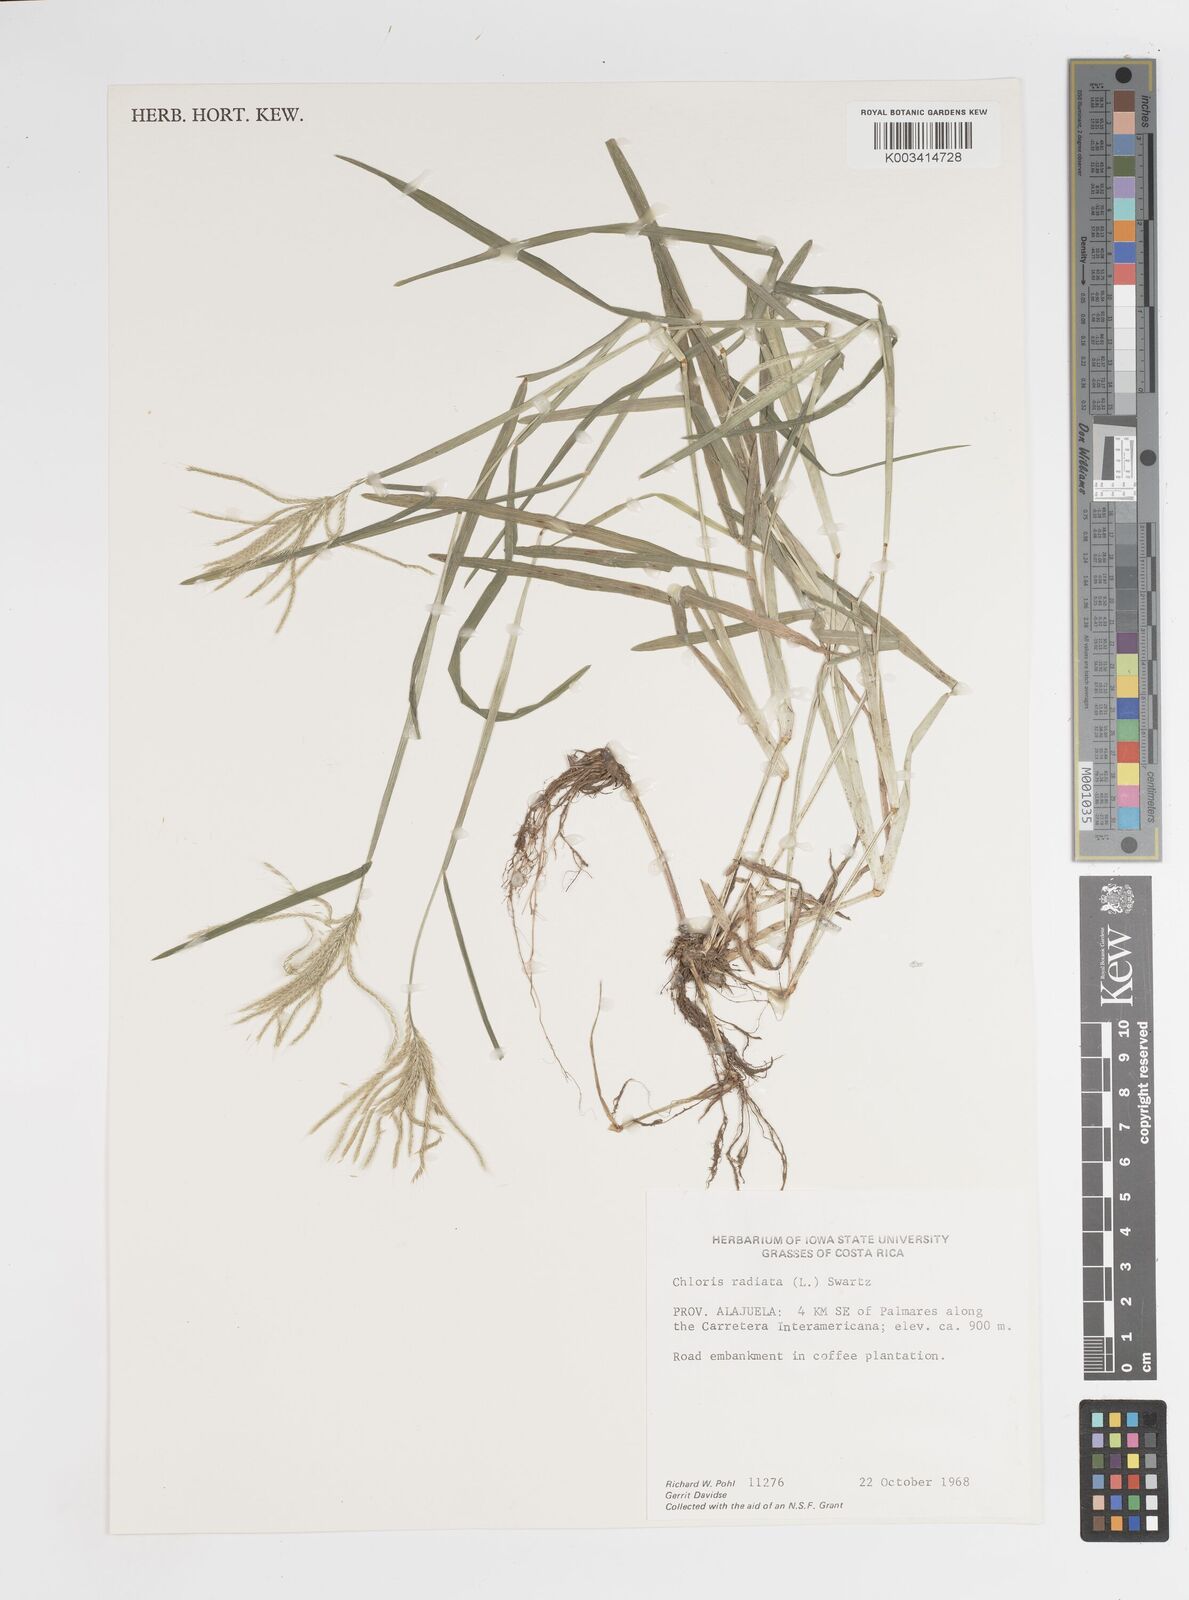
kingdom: Plantae
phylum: Tracheophyta
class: Liliopsida
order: Poales
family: Poaceae
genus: Chloris
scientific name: Chloris radiata
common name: Radiate fingergrass
